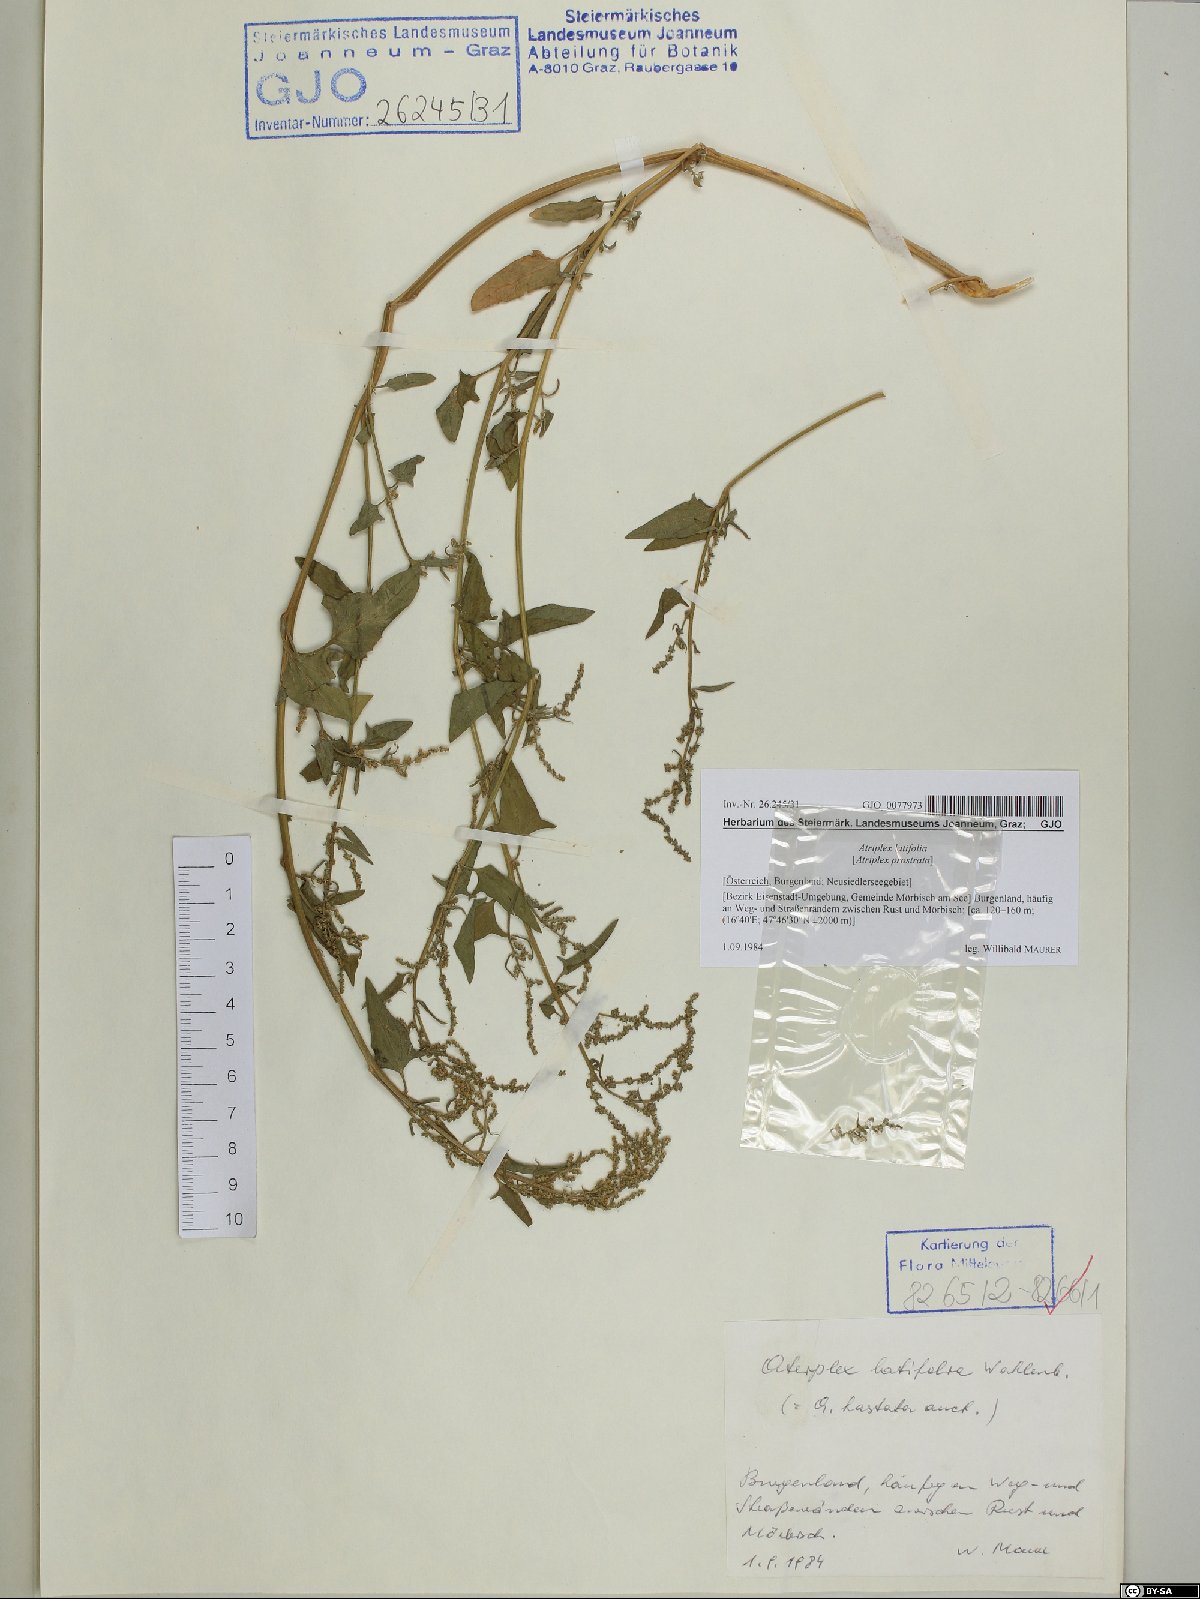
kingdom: Plantae
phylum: Tracheophyta
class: Magnoliopsida
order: Caryophyllales
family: Amaranthaceae
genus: Atriplex
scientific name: Atriplex prostrata
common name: Spear-leaved orache
